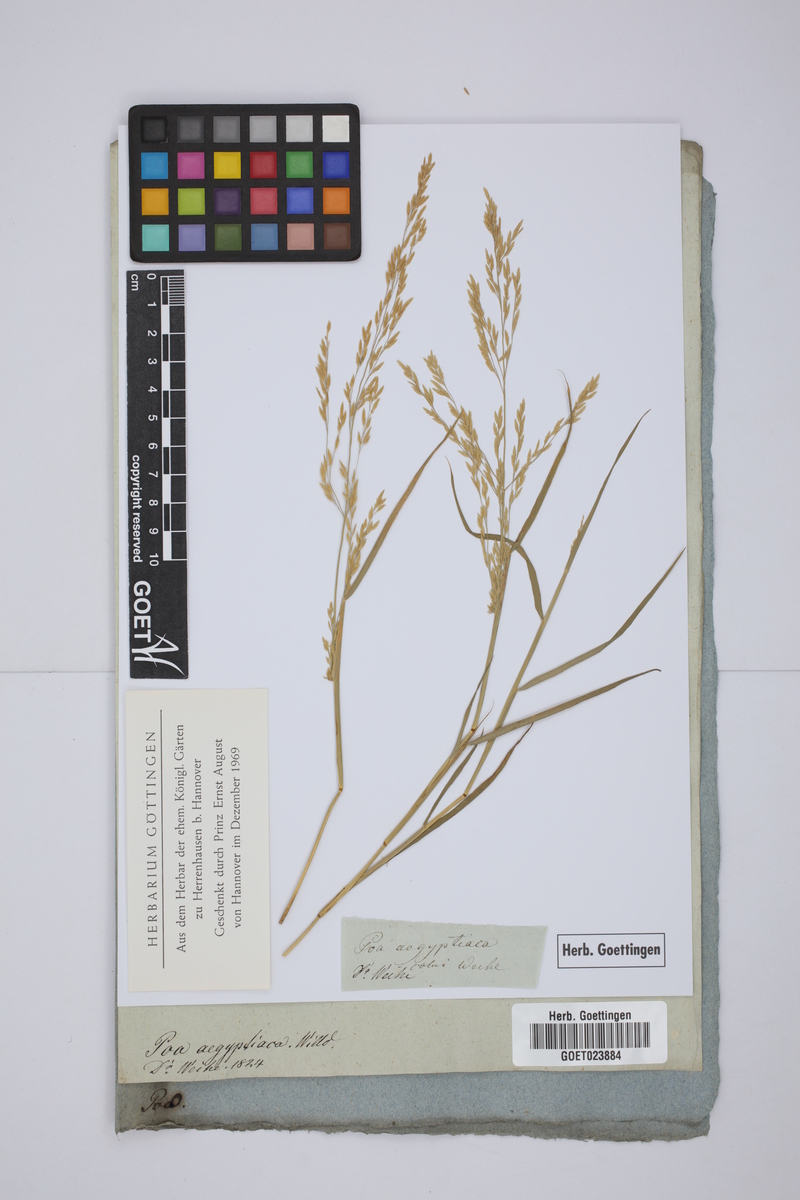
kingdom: Plantae
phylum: Tracheophyta
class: Liliopsida
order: Poales
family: Poaceae
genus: Eragrostis
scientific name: Eragrostis aegyptiaca
